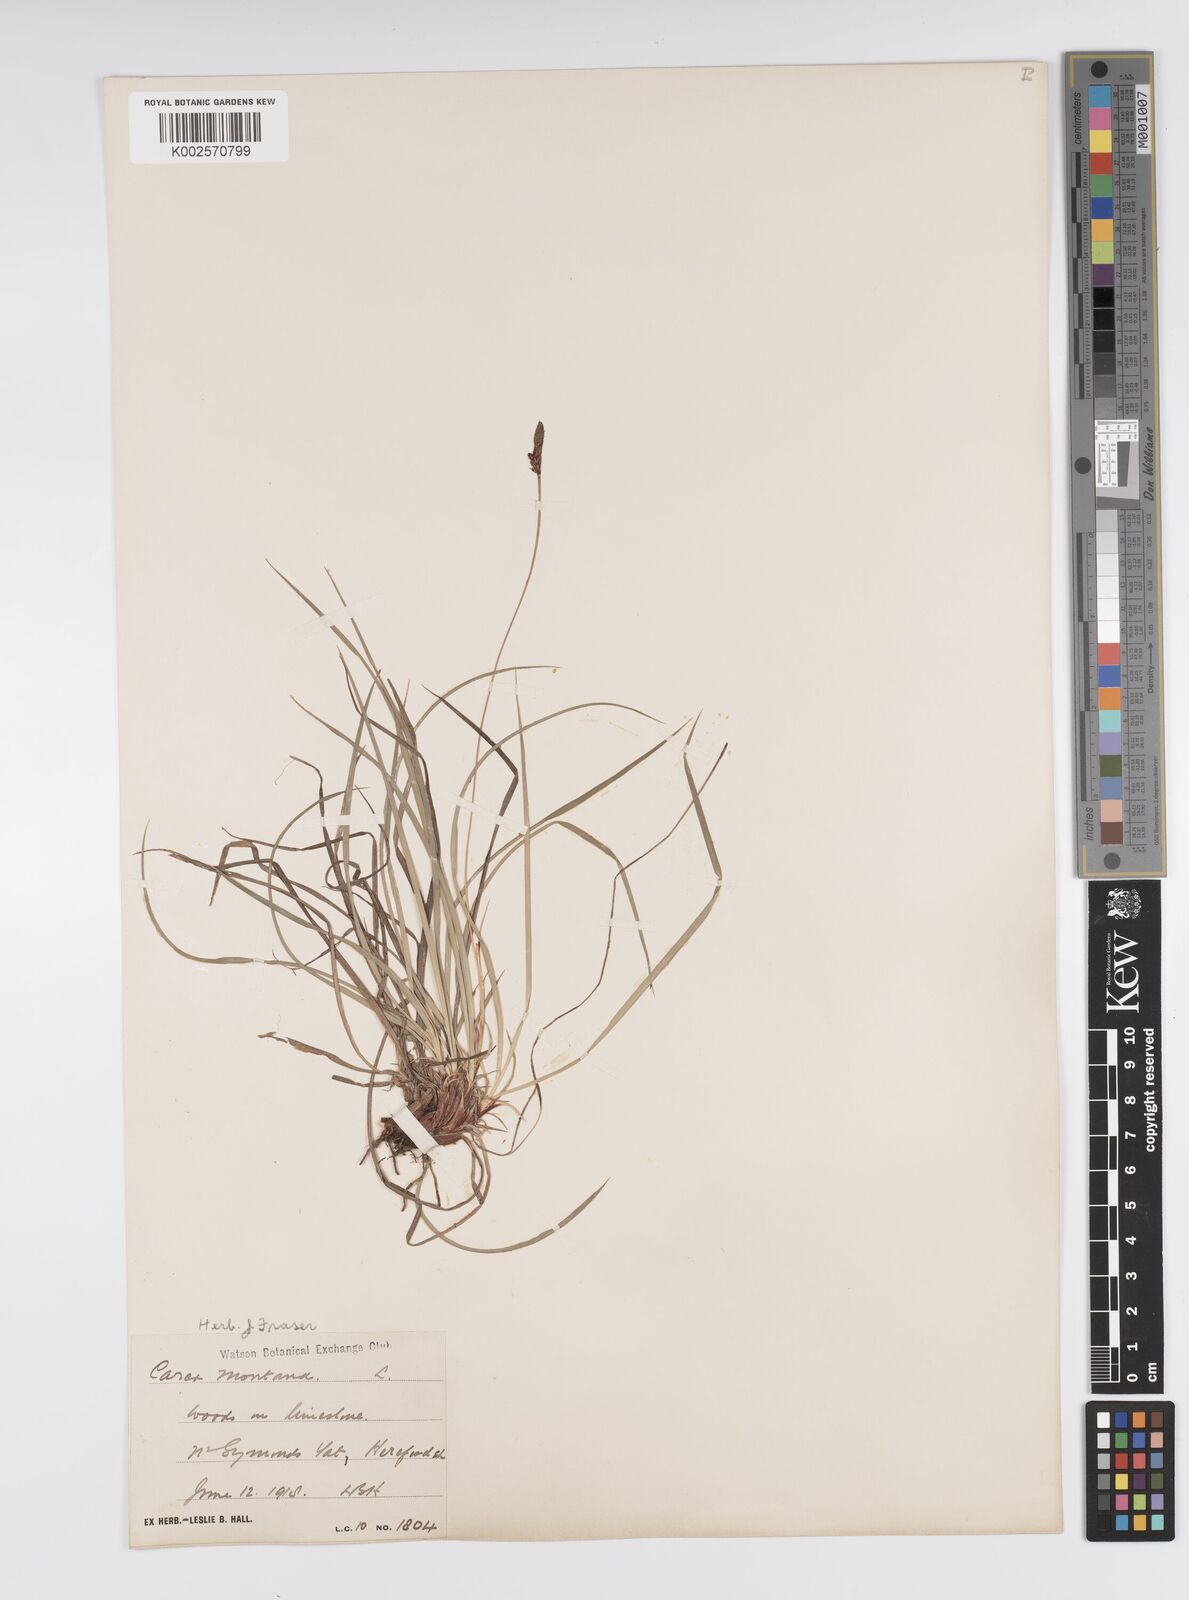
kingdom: Plantae
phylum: Tracheophyta
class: Liliopsida
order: Poales
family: Cyperaceae
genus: Carex
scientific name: Carex montana
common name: Soft-leaved sedge
